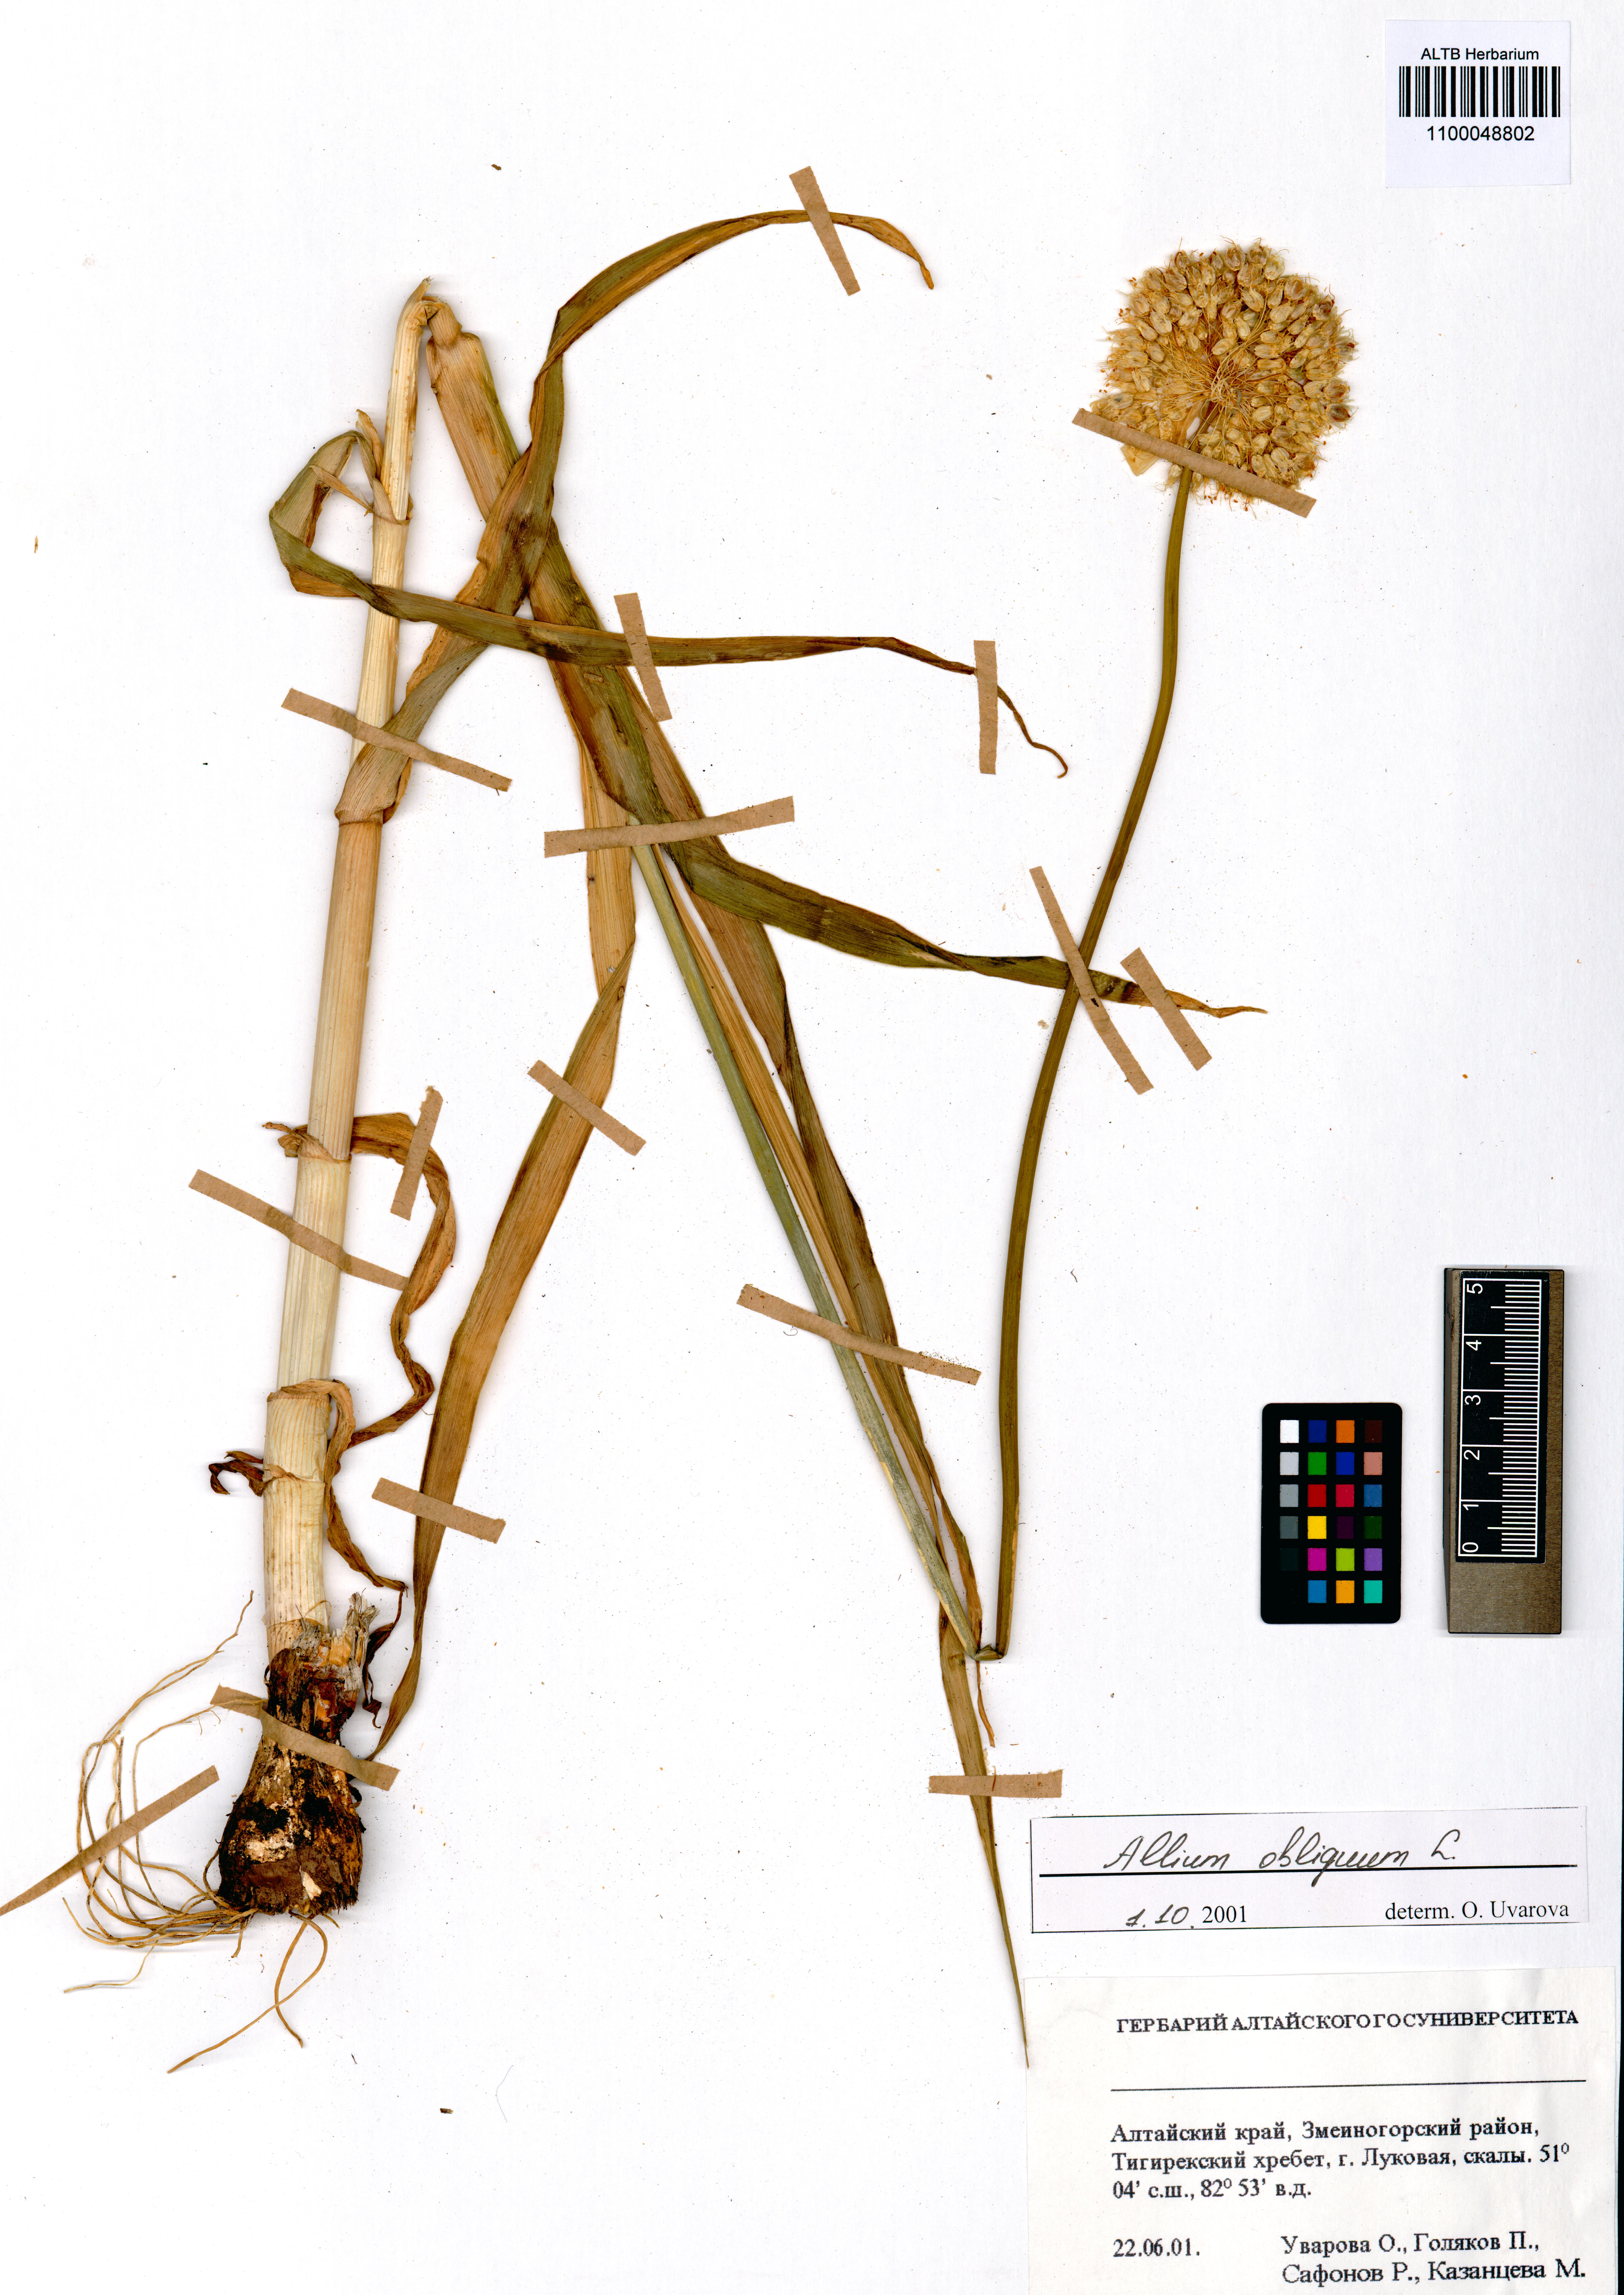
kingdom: Plantae
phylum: Tracheophyta
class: Liliopsida
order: Asparagales
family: Amaryllidaceae
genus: Allium
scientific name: Allium obliquum
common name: Oblique onion
